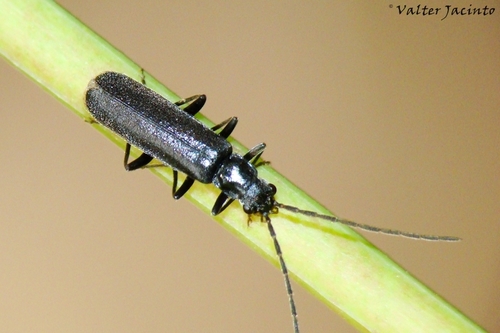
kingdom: Animalia
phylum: Arthropoda
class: Insecta
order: Coleoptera
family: Cantharidae
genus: Rhagonycha
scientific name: Rhagonycha martini
